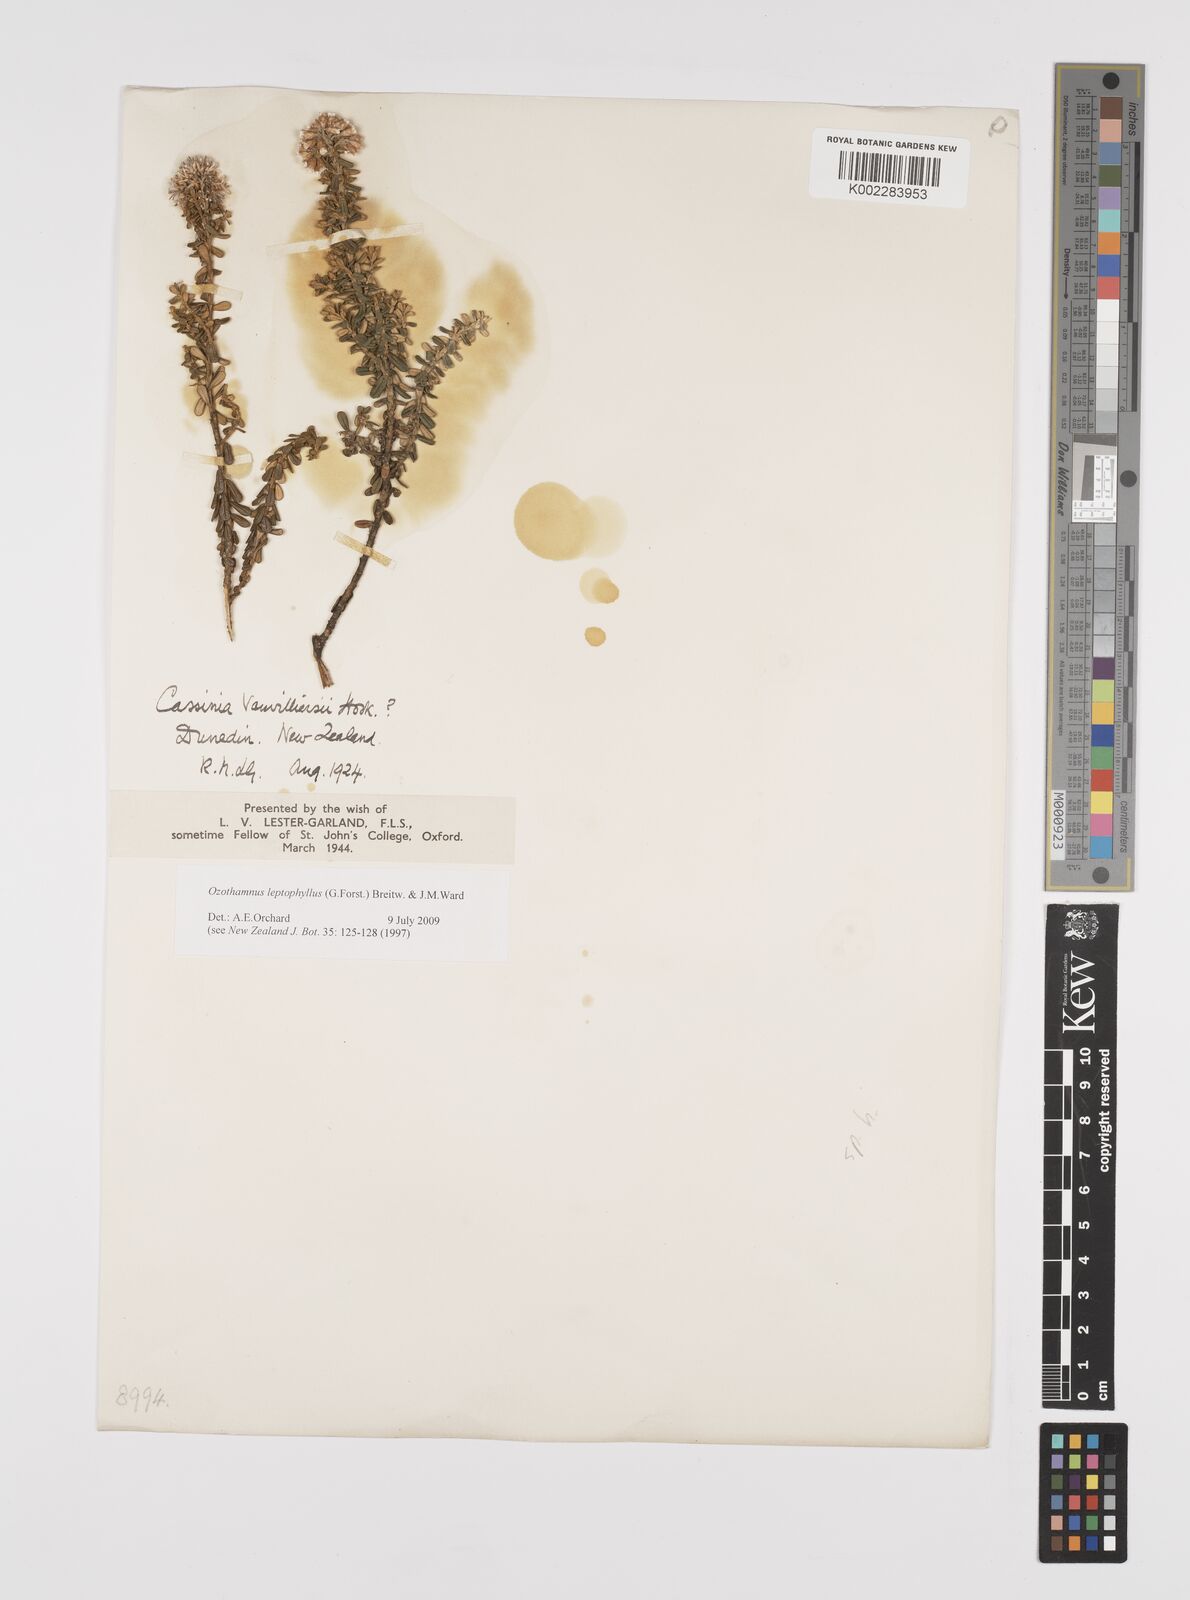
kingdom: Plantae
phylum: Tracheophyta
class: Magnoliopsida
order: Asterales
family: Asteraceae
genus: Ozothamnus
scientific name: Ozothamnus leptophyllus
